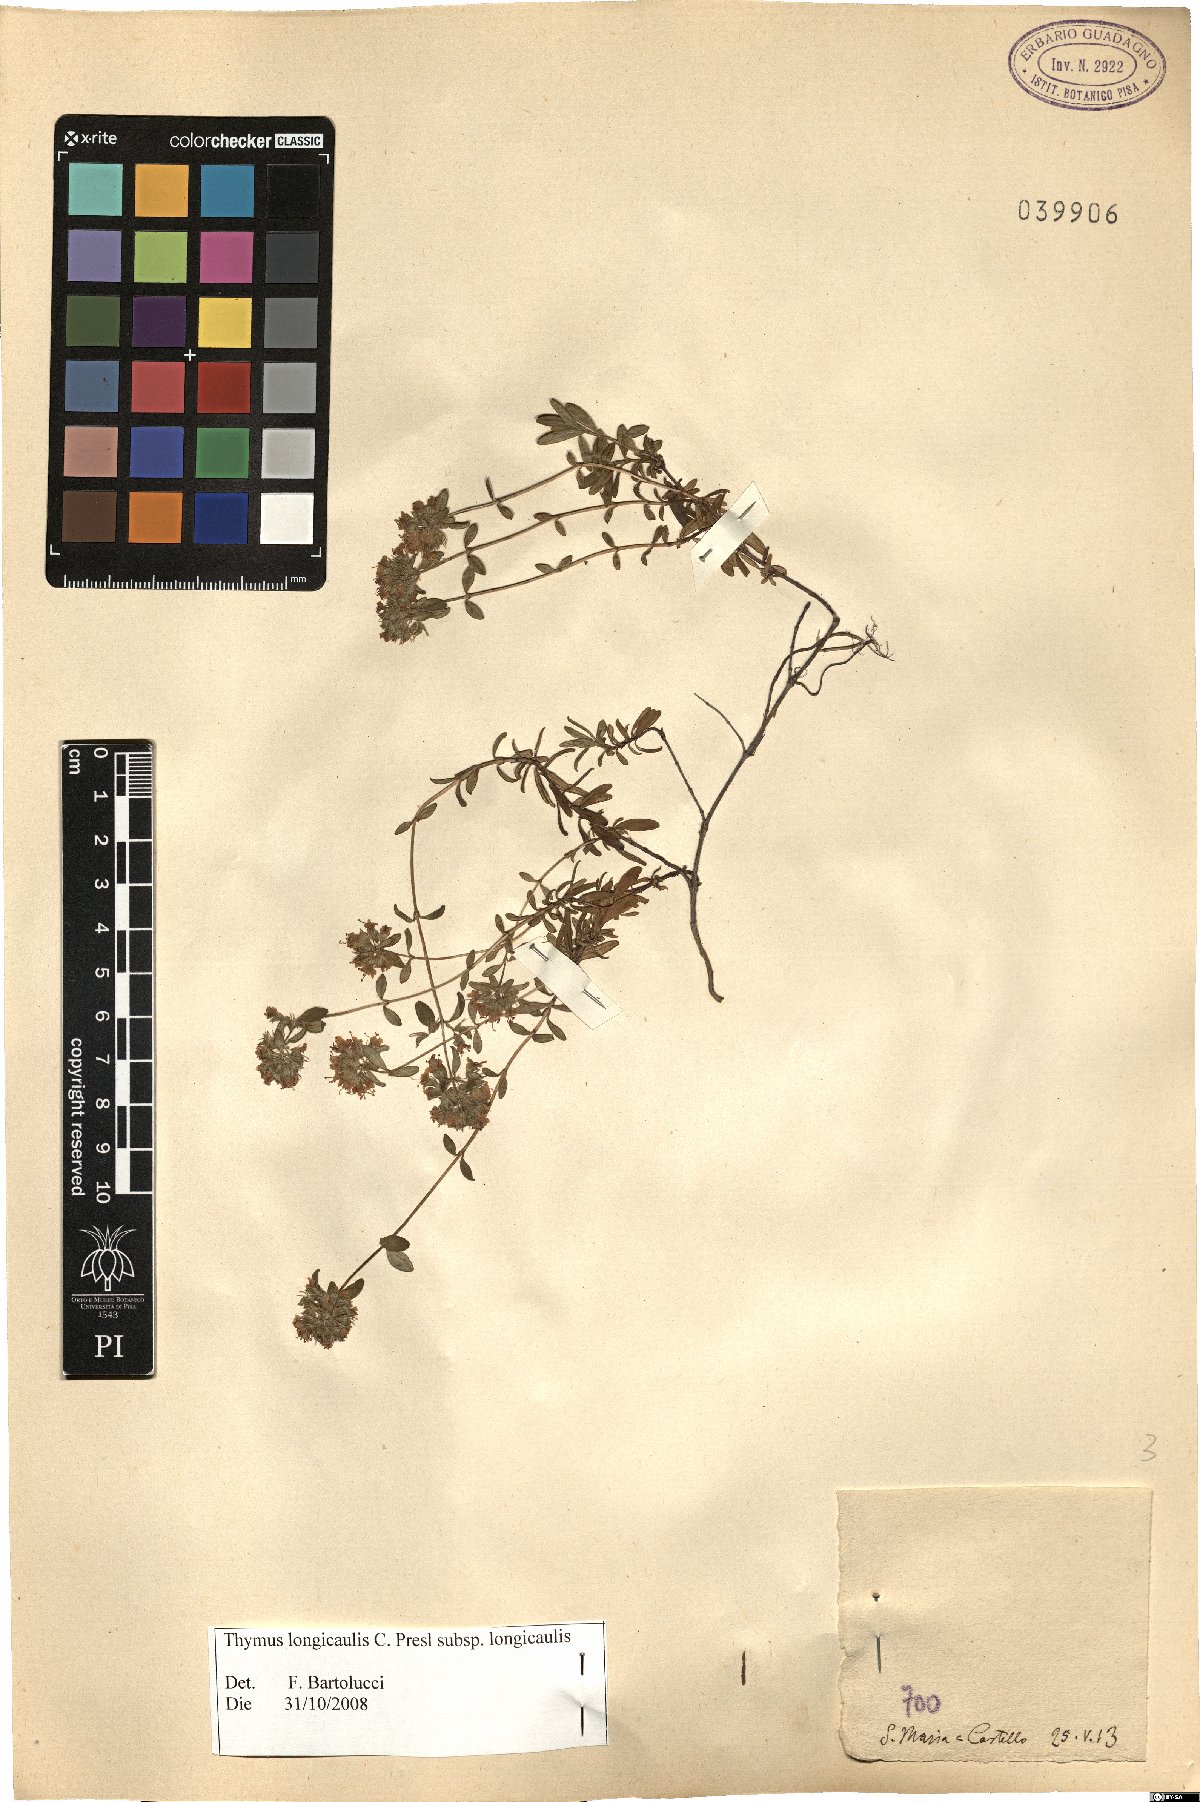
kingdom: Plantae
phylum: Tracheophyta
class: Magnoliopsida
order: Lamiales
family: Lamiaceae
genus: Thymus
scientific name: Thymus longicaulis
